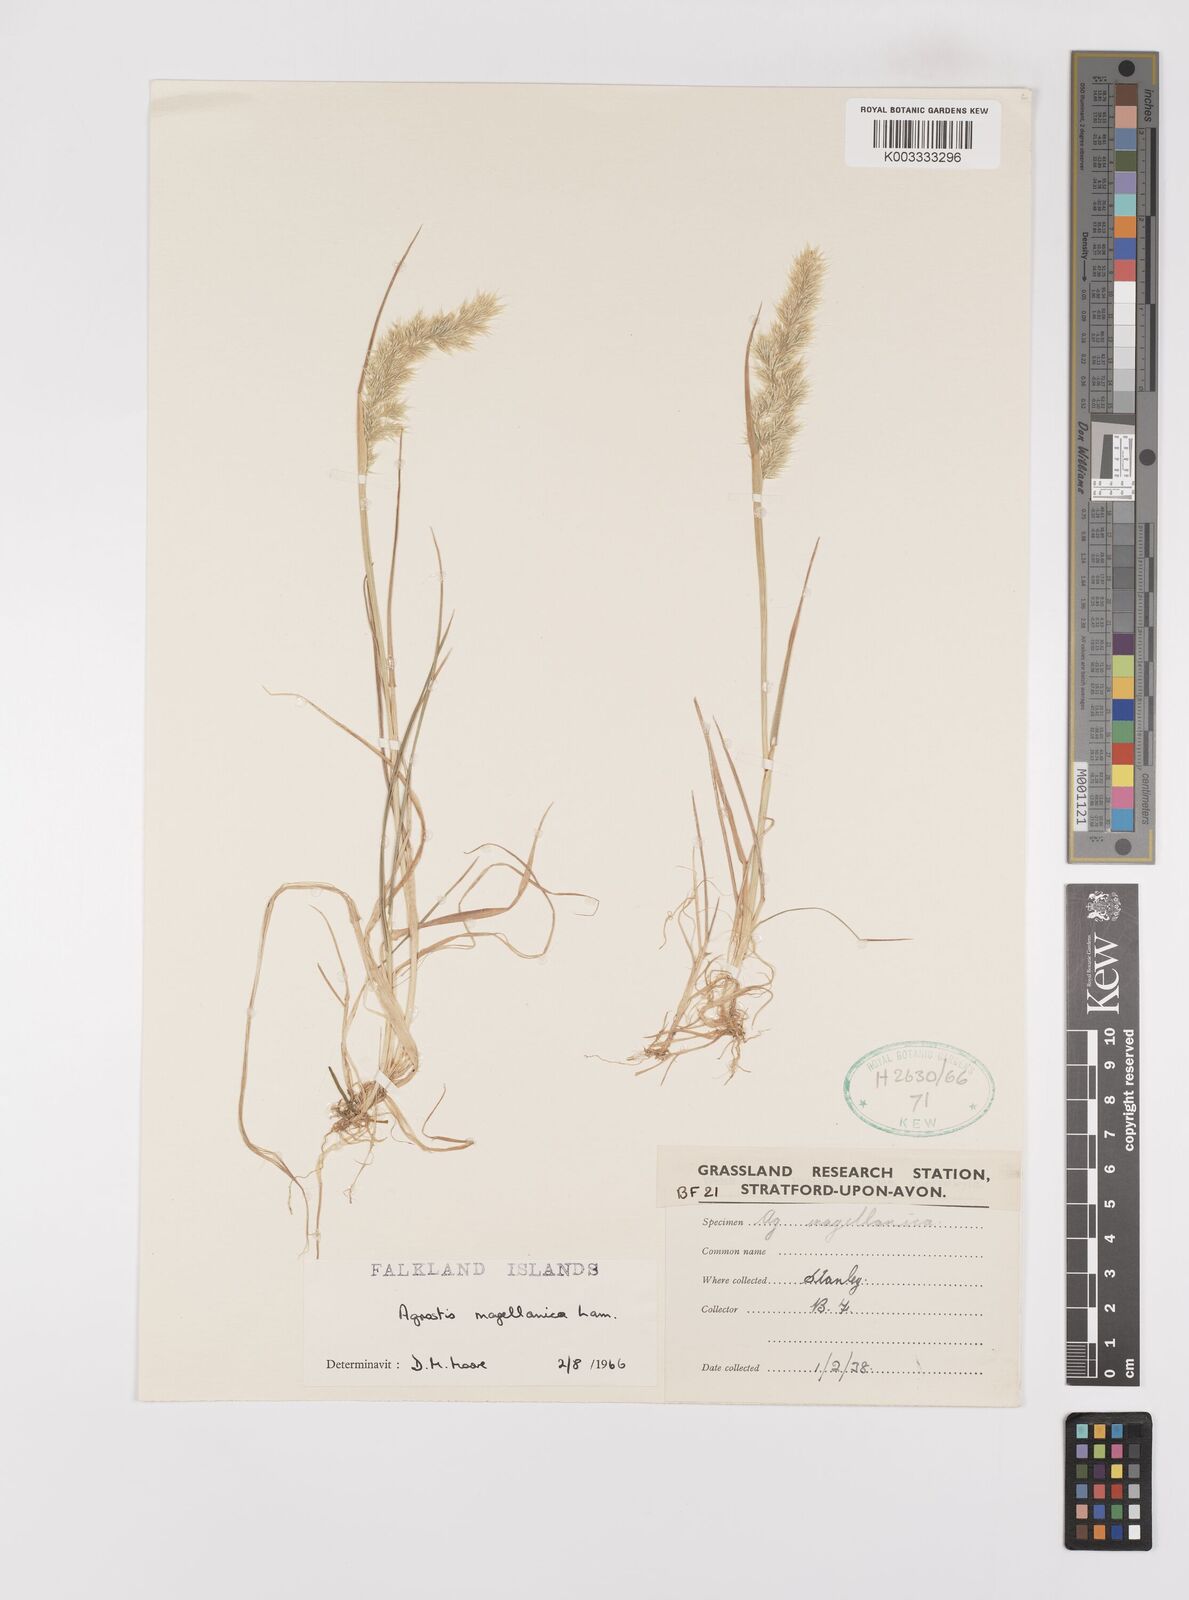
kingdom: Plantae
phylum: Tracheophyta
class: Liliopsida
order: Poales
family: Poaceae
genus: Polypogon
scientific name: Polypogon magellanicus
